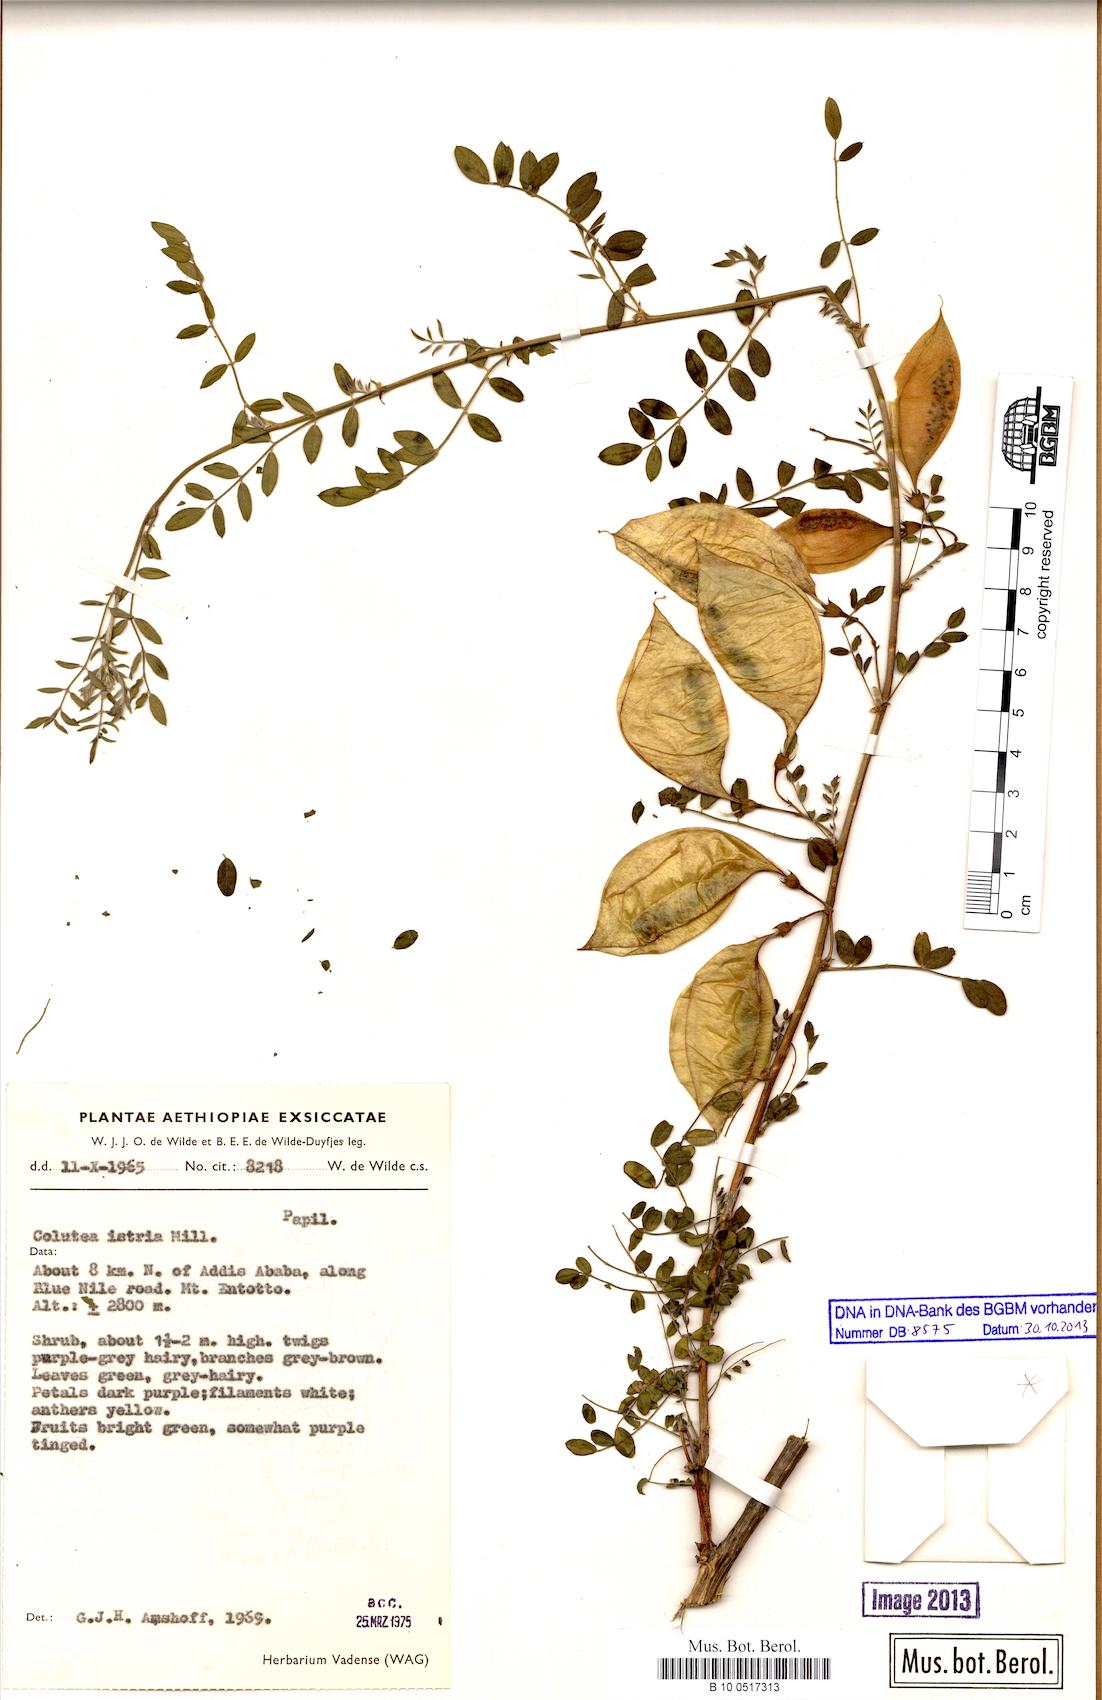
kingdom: Plantae
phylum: Tracheophyta
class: Magnoliopsida
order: Fabales
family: Fabaceae
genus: Colutea
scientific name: Colutea istria
